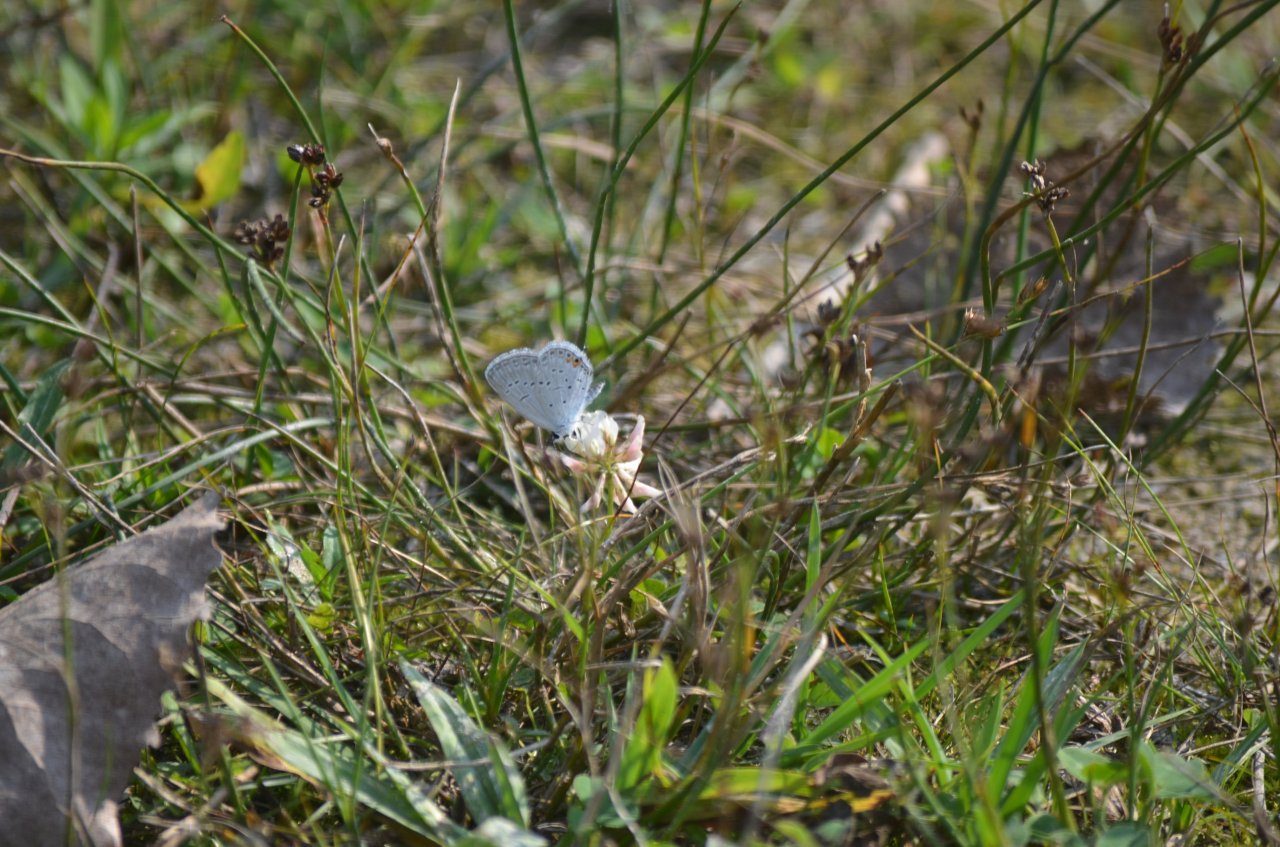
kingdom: Animalia
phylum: Arthropoda
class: Insecta
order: Lepidoptera
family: Lycaenidae
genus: Elkalyce
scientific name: Elkalyce comyntas
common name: Eastern Tailed-Blue
